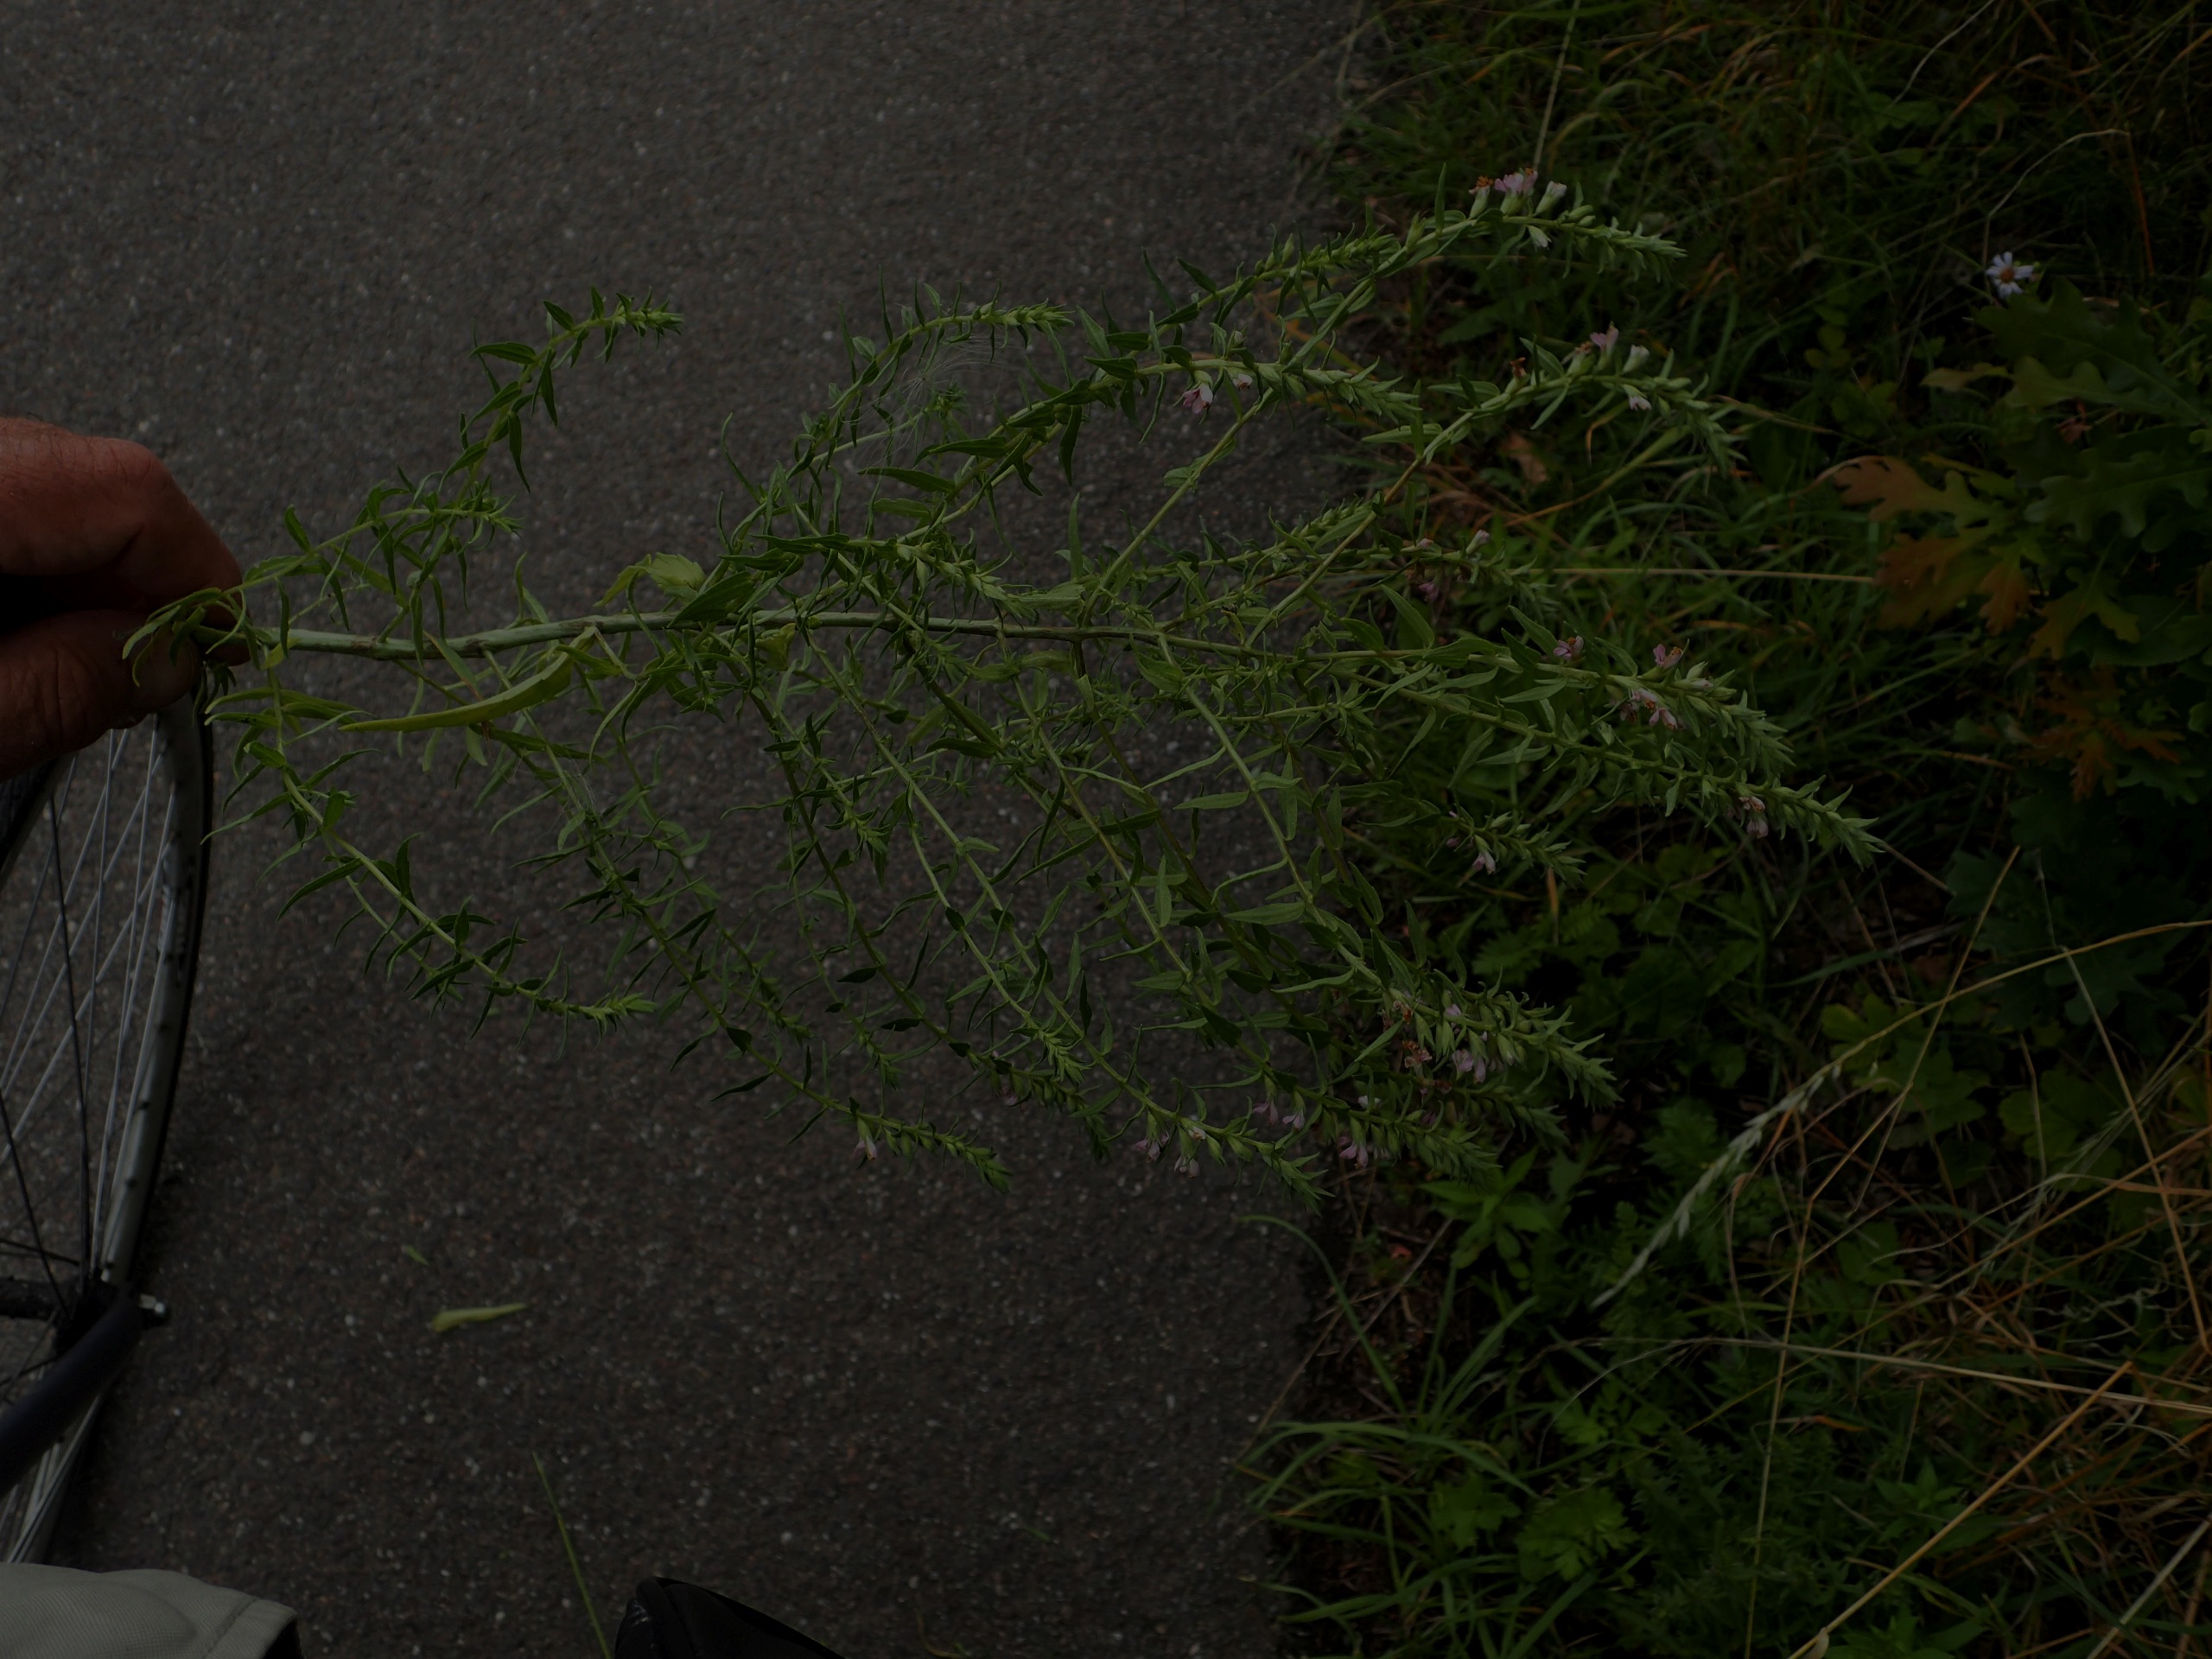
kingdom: Plantae
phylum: Tracheophyta
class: Magnoliopsida
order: Lamiales
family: Orobanchaceae
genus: Odontites
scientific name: Odontites vulgaris
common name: Høst-rødtop
